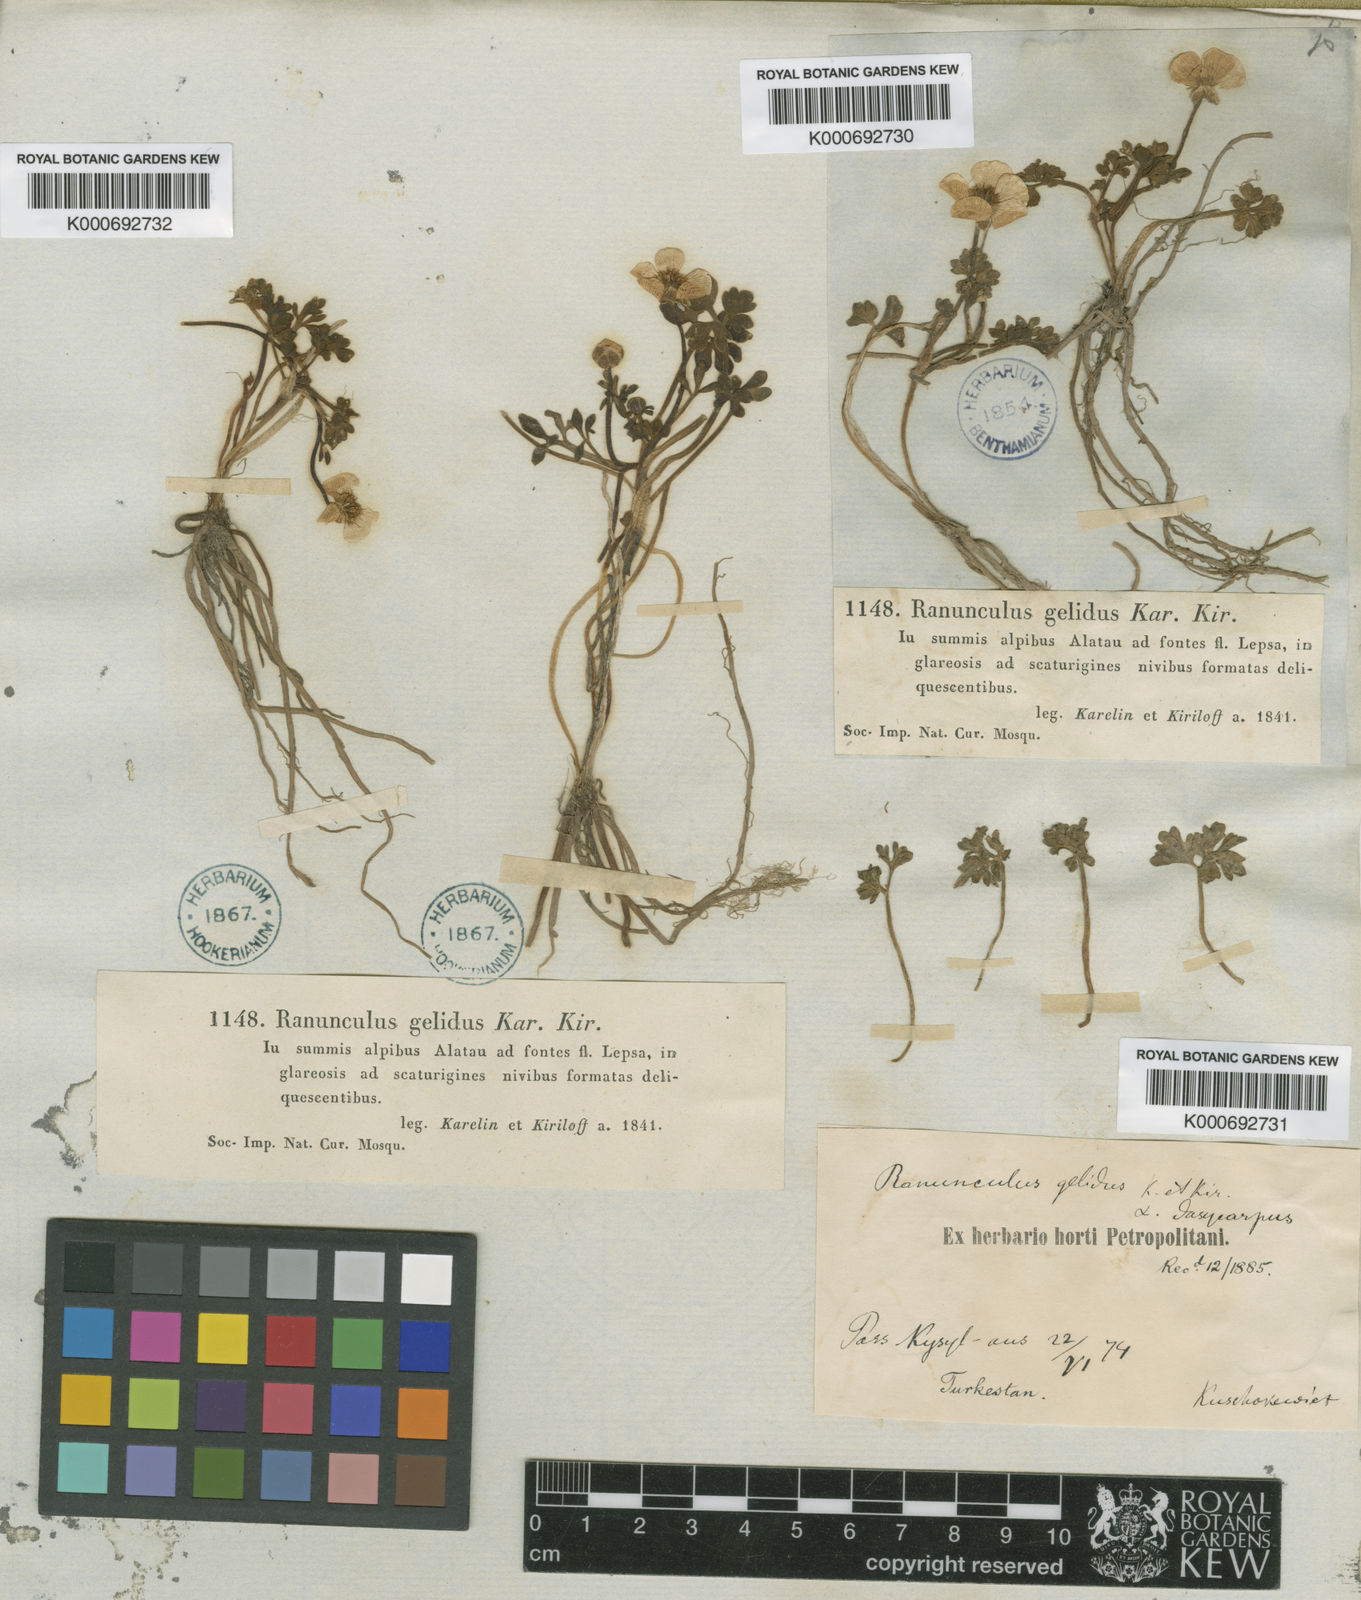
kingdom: Plantae
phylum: Tracheophyta
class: Magnoliopsida
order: Ranunculales
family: Ranunculaceae
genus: Ranunculus
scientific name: Ranunculus karelinii
